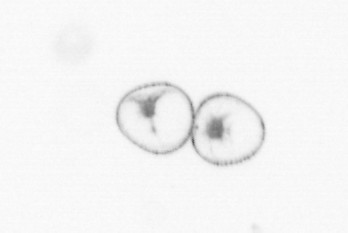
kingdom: Chromista
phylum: Myzozoa
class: Dinophyceae
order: Noctilucales
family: Noctilucaceae
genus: Noctiluca
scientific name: Noctiluca scintillans
